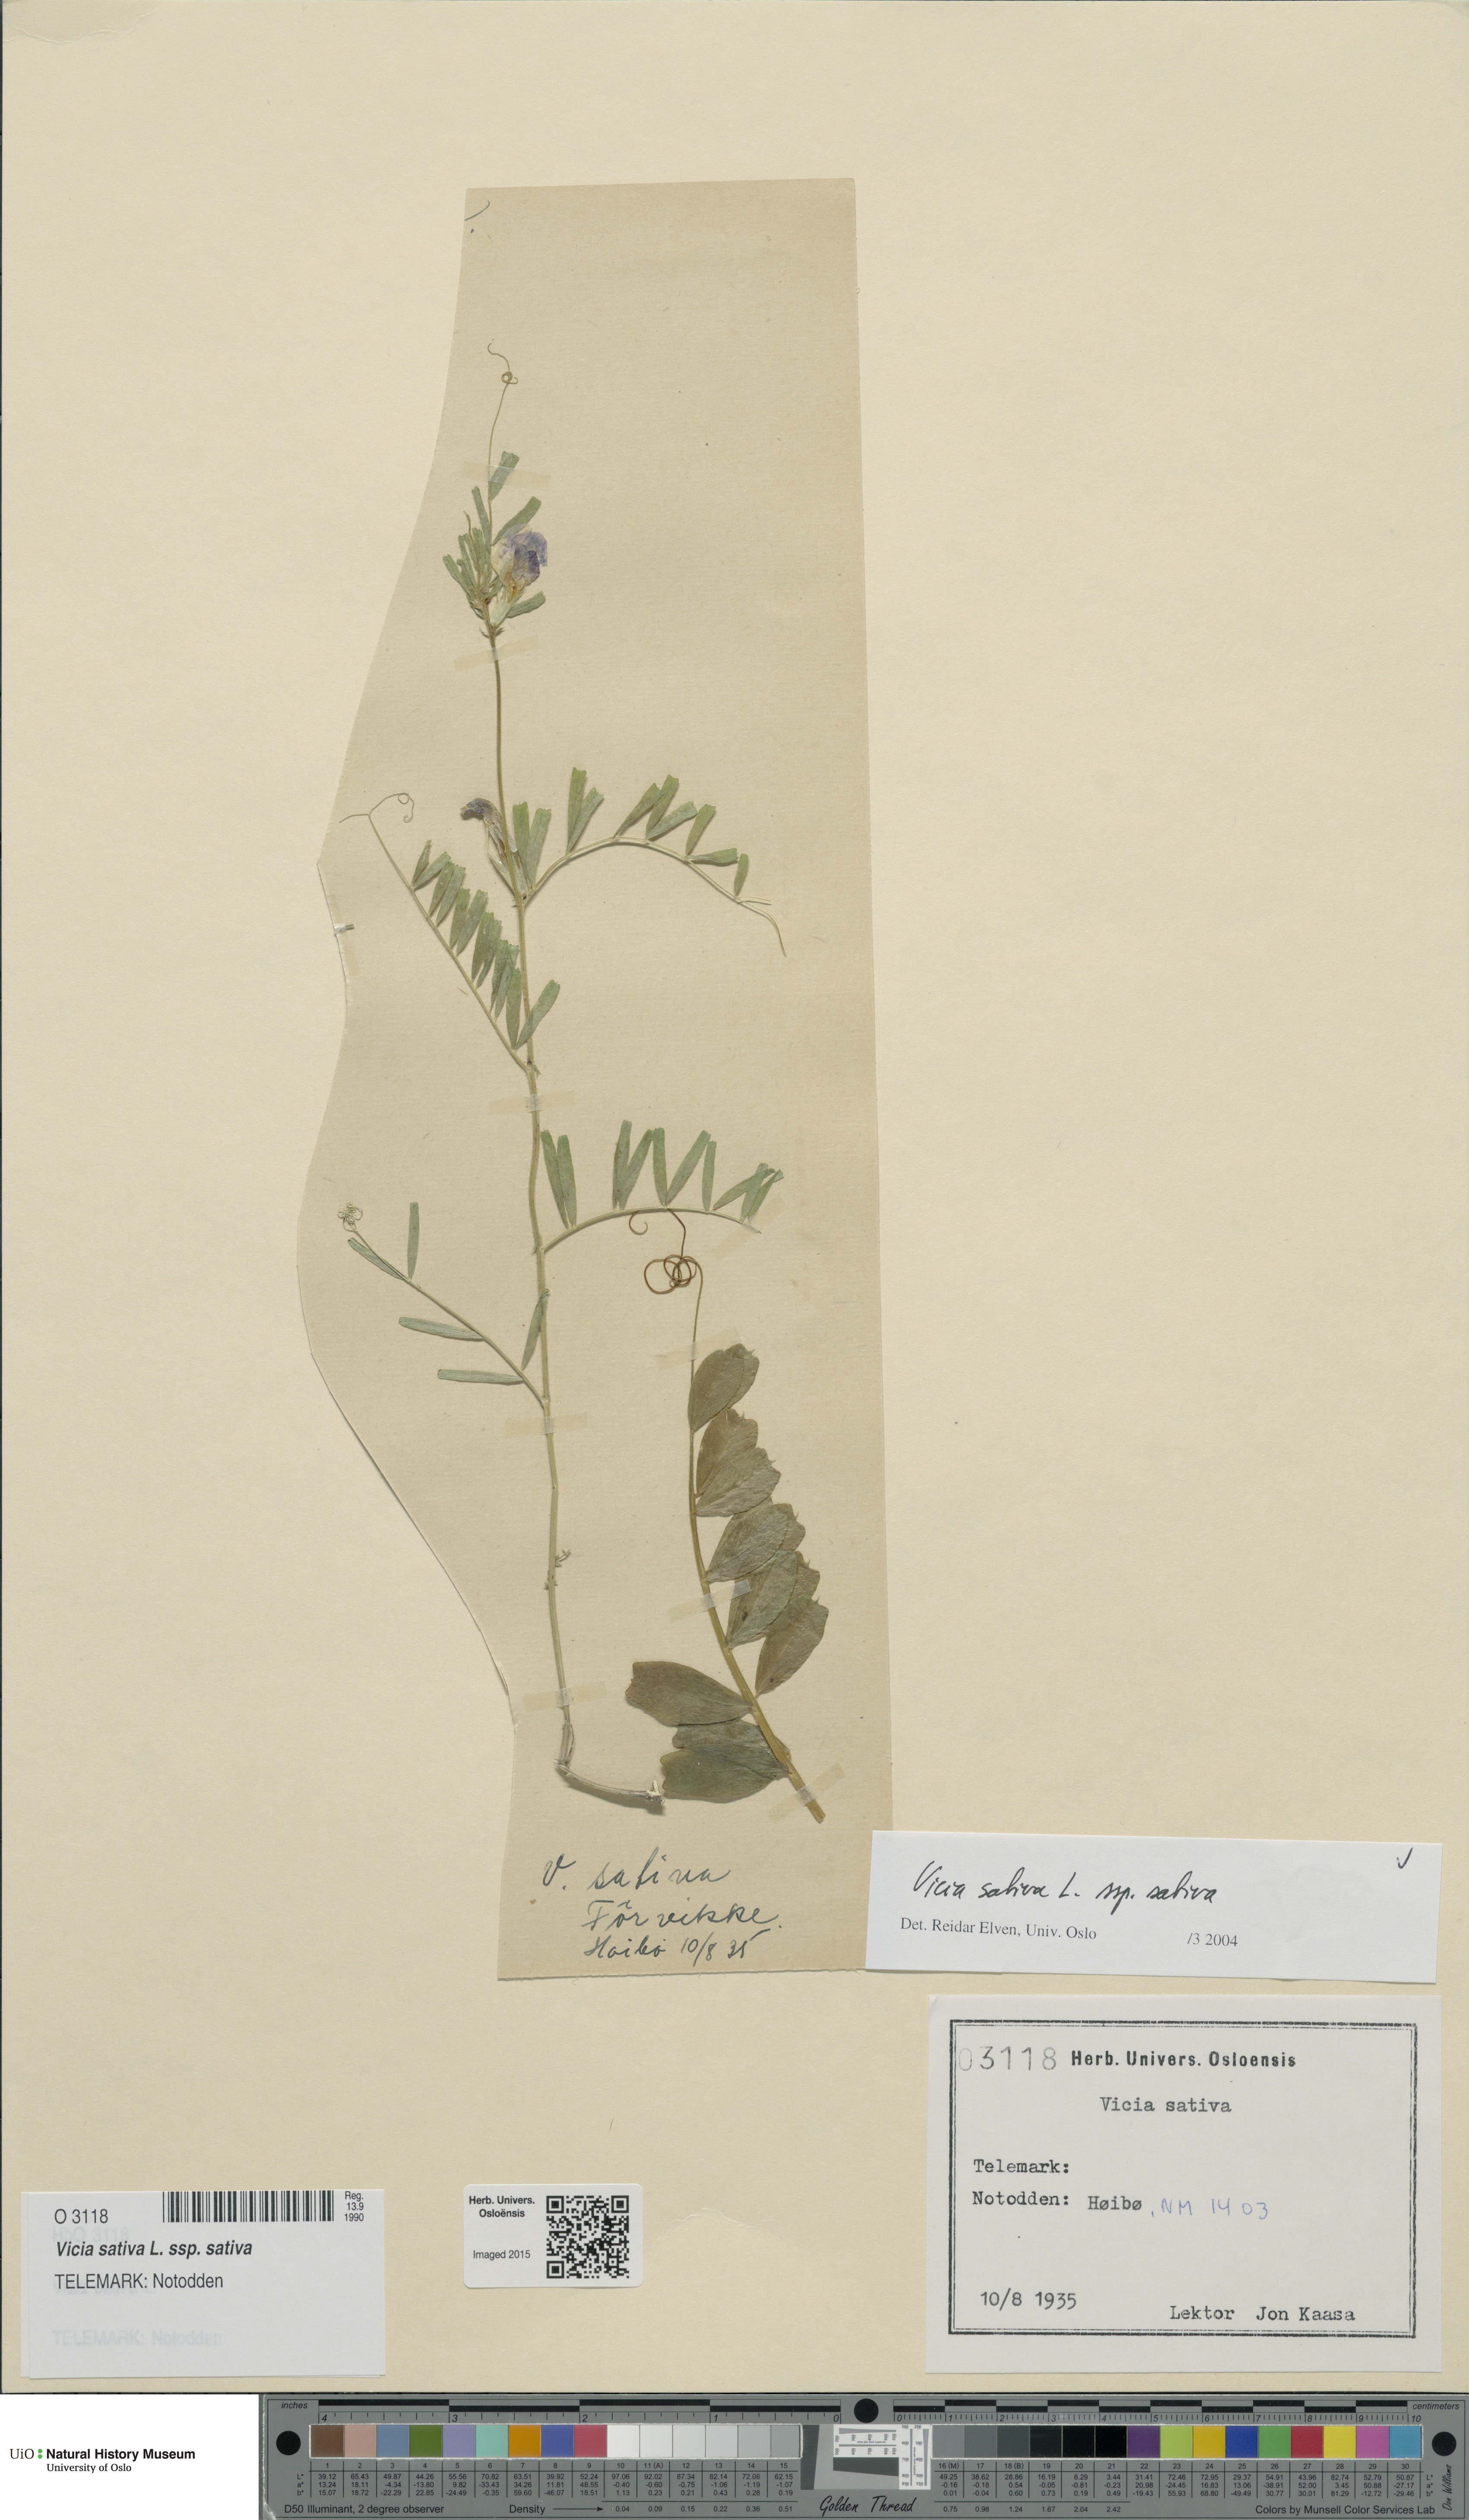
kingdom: Plantae
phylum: Tracheophyta
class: Magnoliopsida
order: Fabales
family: Fabaceae
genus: Vicia
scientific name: Vicia sativa
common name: Garden vetch
